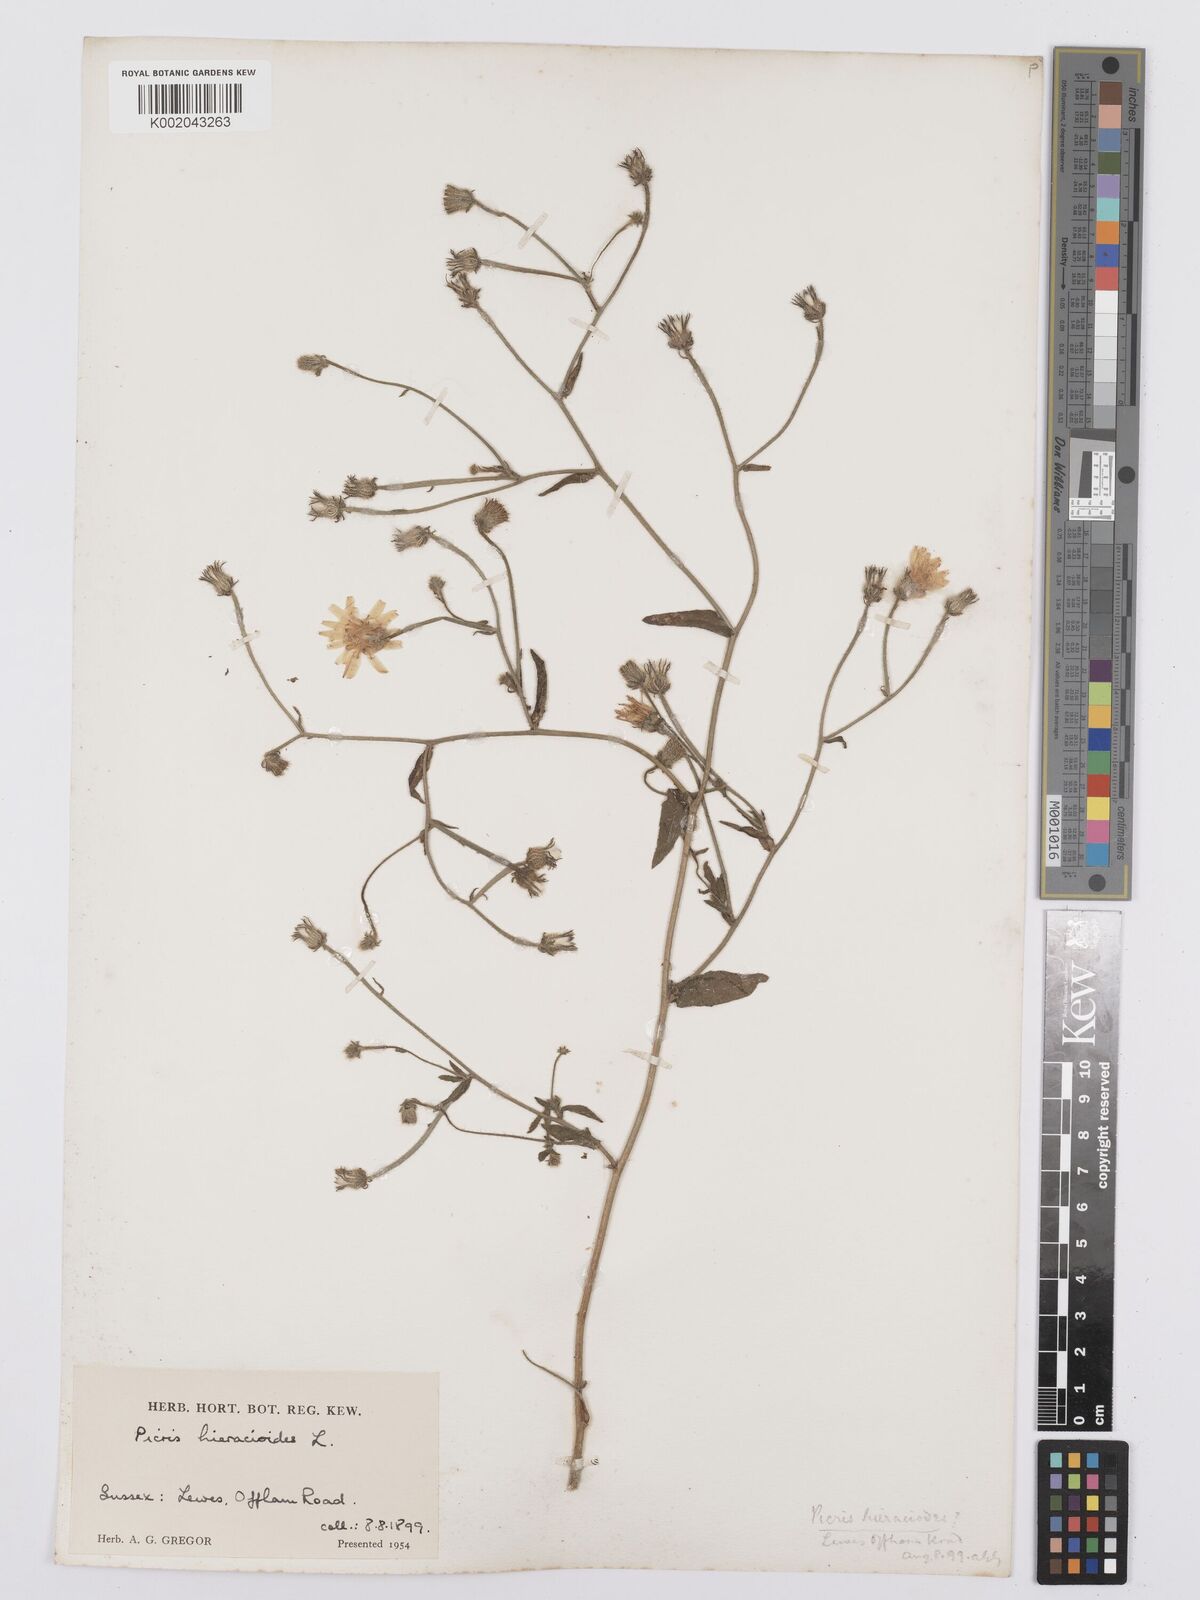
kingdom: Plantae
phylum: Tracheophyta
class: Magnoliopsida
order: Asterales
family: Asteraceae
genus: Picris
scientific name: Picris hieracioides
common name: Hawkweed oxtongue
